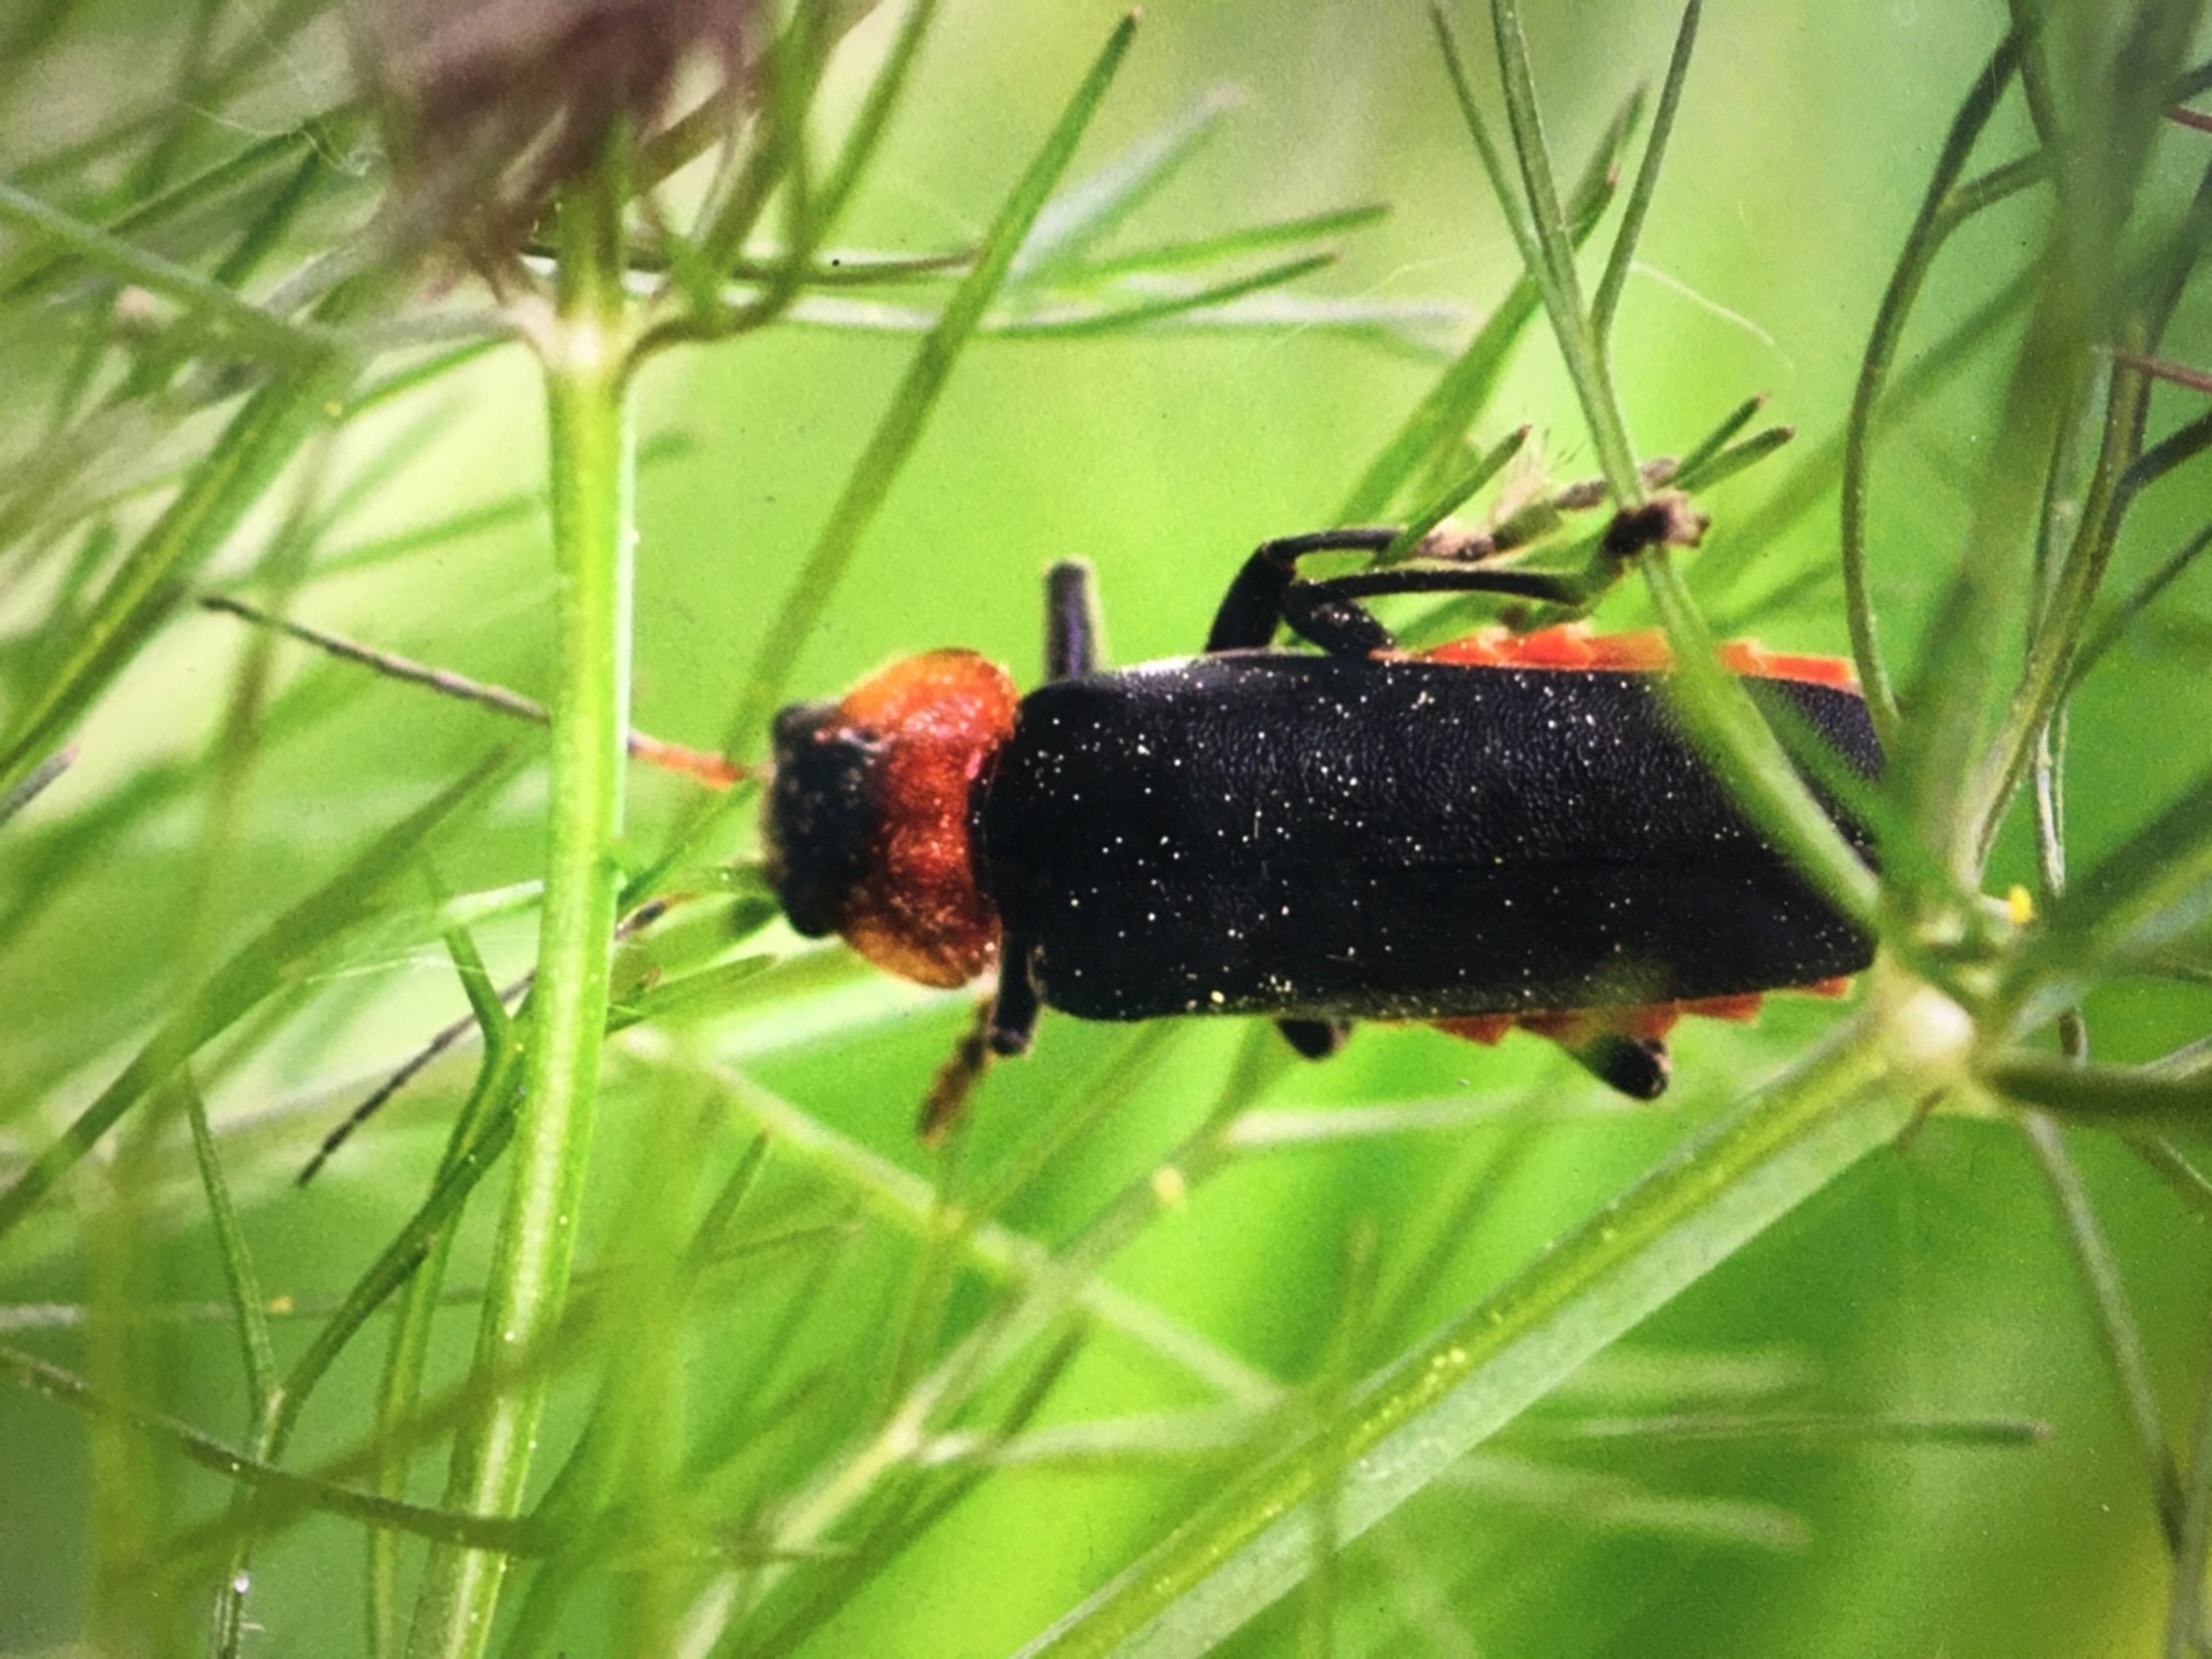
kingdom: Animalia
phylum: Arthropoda
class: Insecta
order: Coleoptera
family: Cantharidae
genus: Cantharis
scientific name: Cantharis fusca
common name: Stor blødvinge
